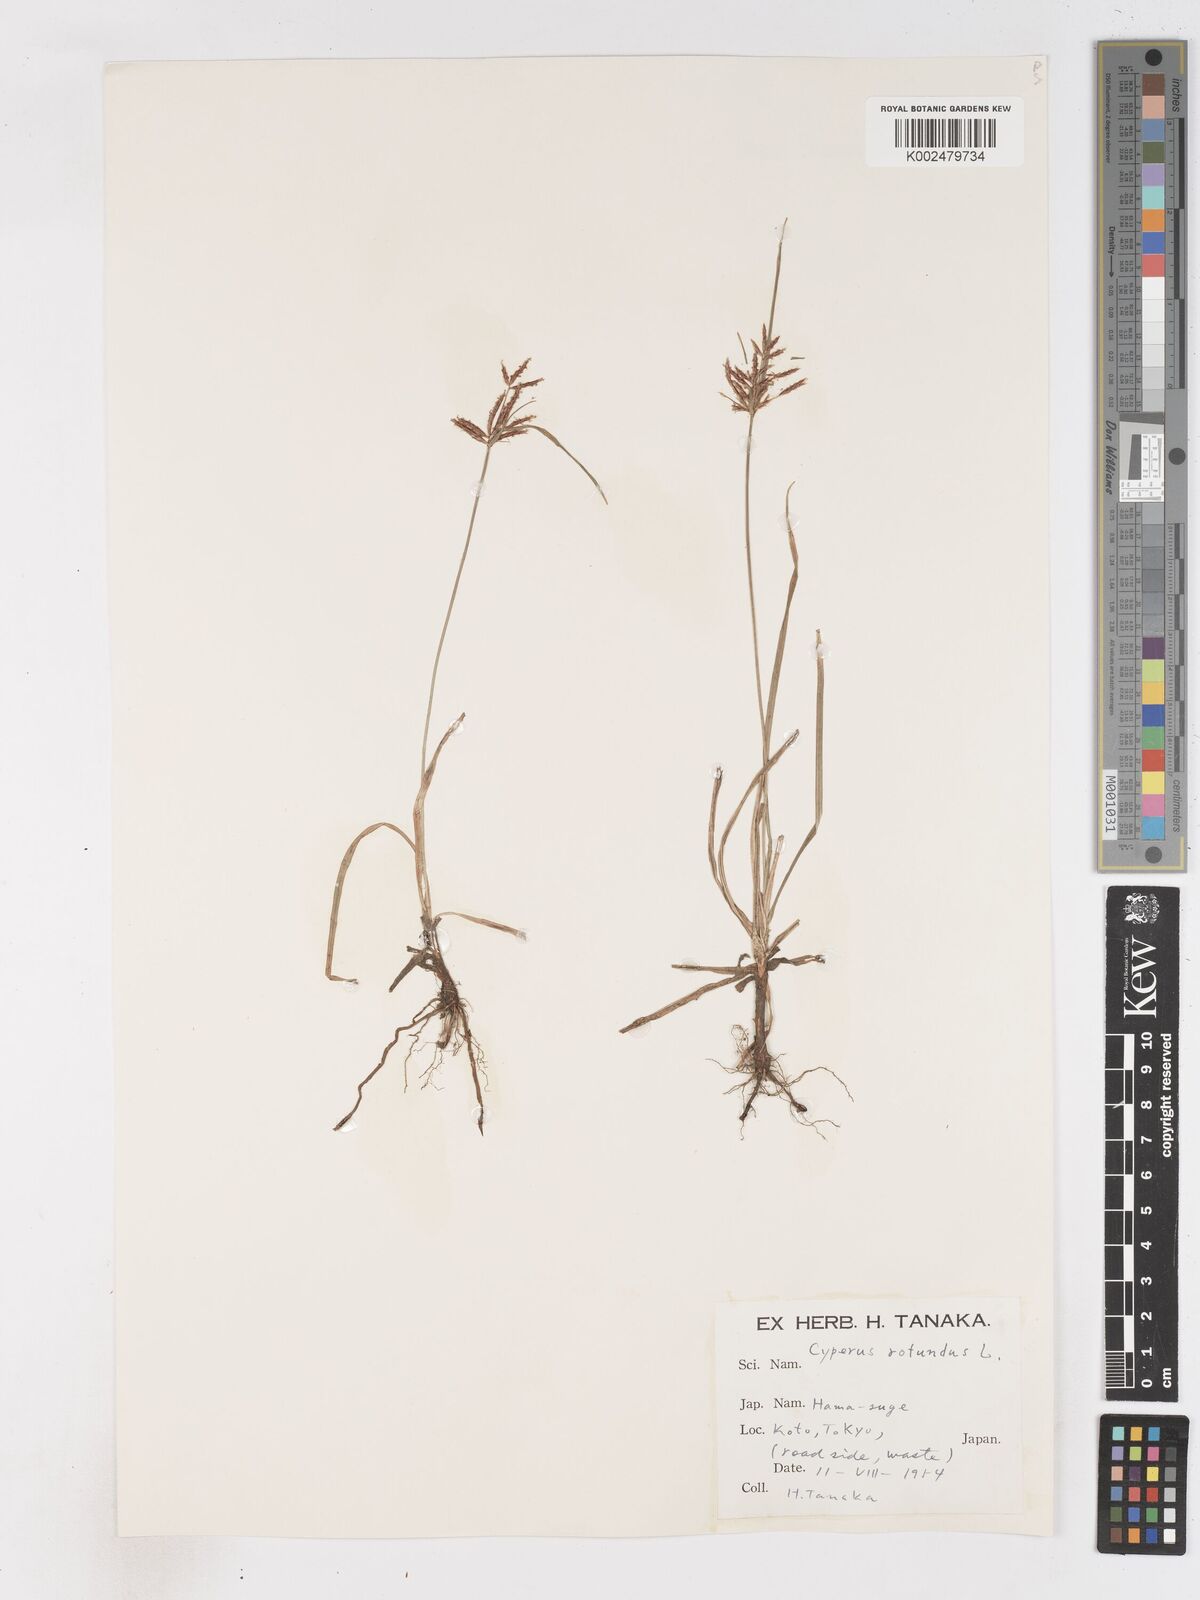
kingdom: Plantae
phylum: Tracheophyta
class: Liliopsida
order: Poales
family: Cyperaceae
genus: Cyperus
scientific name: Cyperus rotundus
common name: Nutgrass
